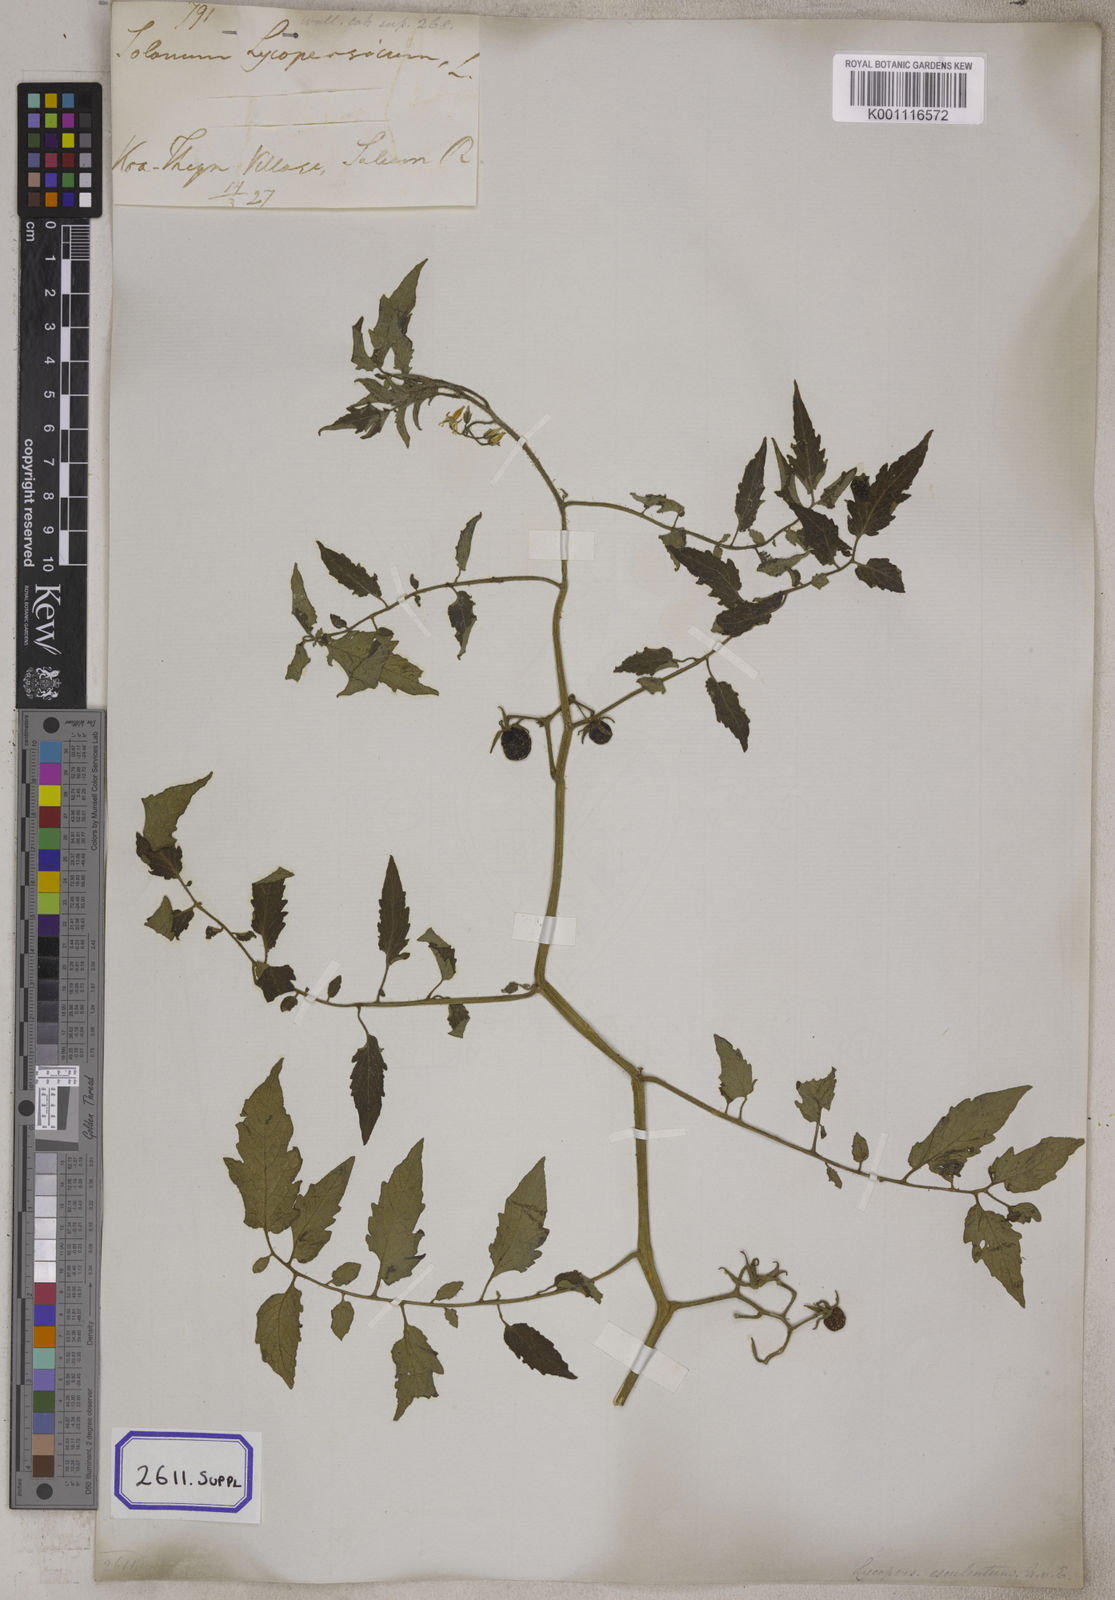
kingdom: Plantae
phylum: Tracheophyta
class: Magnoliopsida
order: Solanales
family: Solanaceae
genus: Solanum
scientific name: Solanum lycopersicum
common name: Garden tomato
